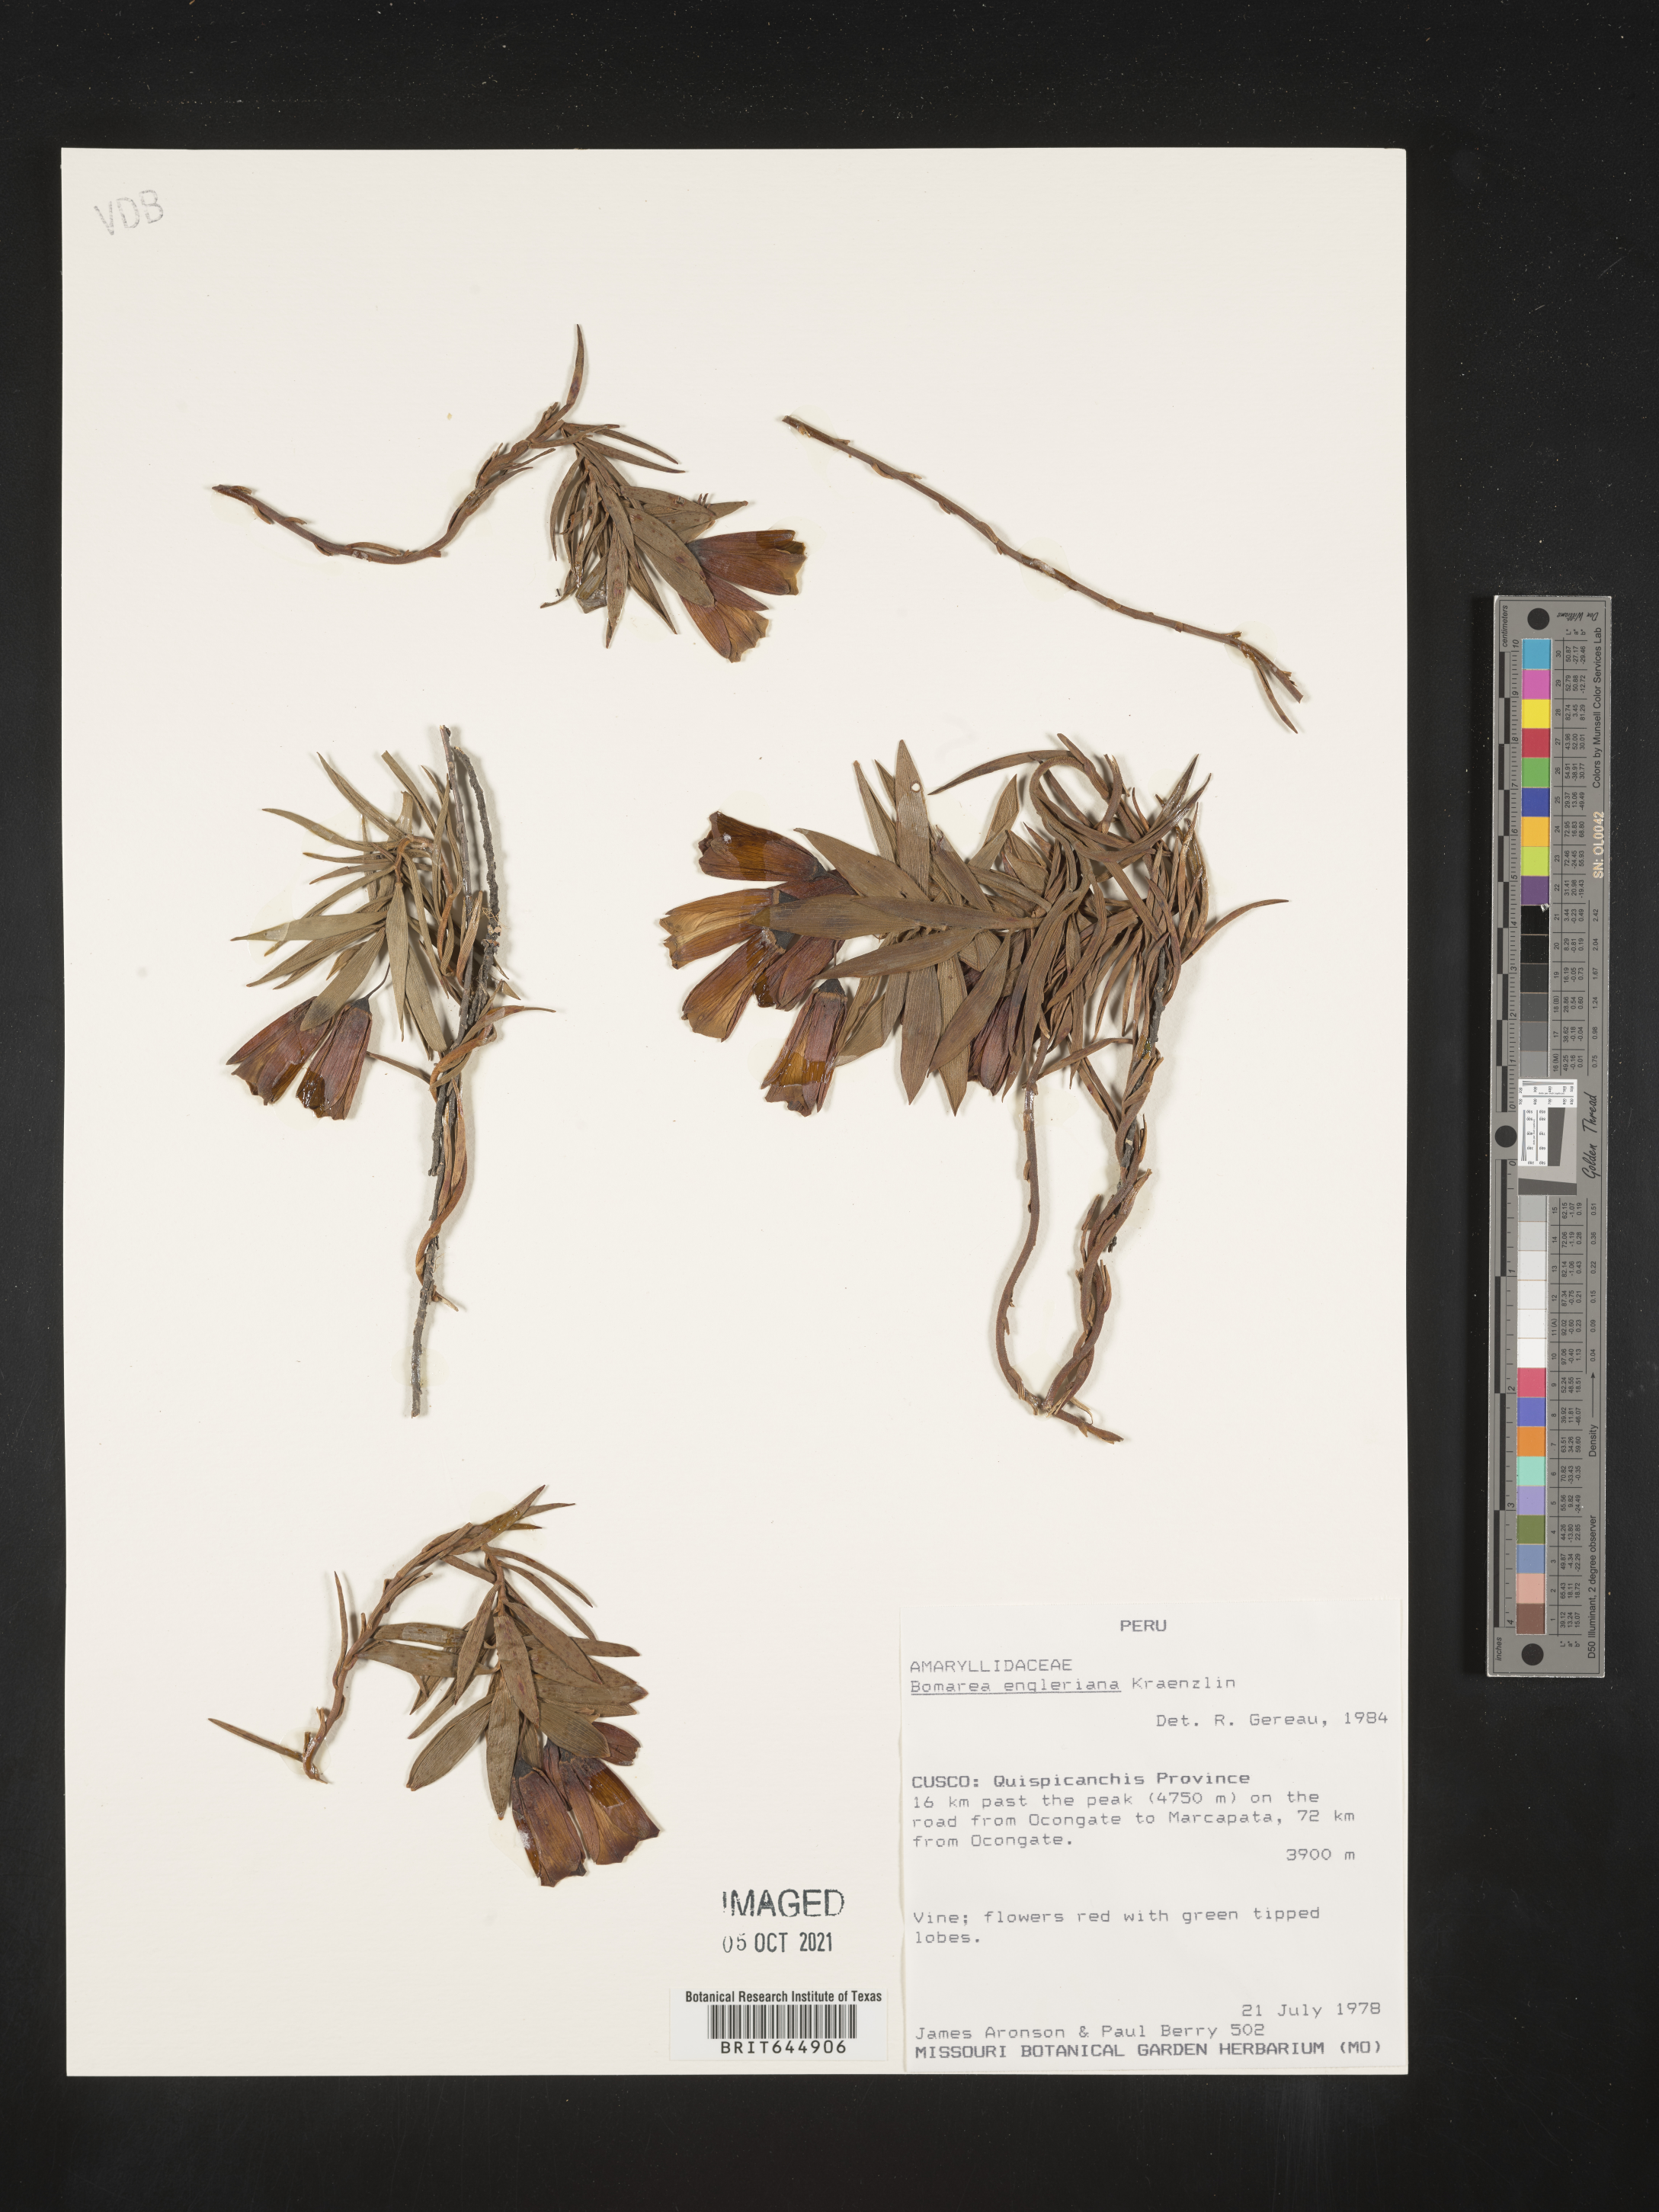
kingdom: Plantae
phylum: Tracheophyta
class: Liliopsida
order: Liliales
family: Alstroemeriaceae
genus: Bomarea
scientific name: Bomarea engleriana
